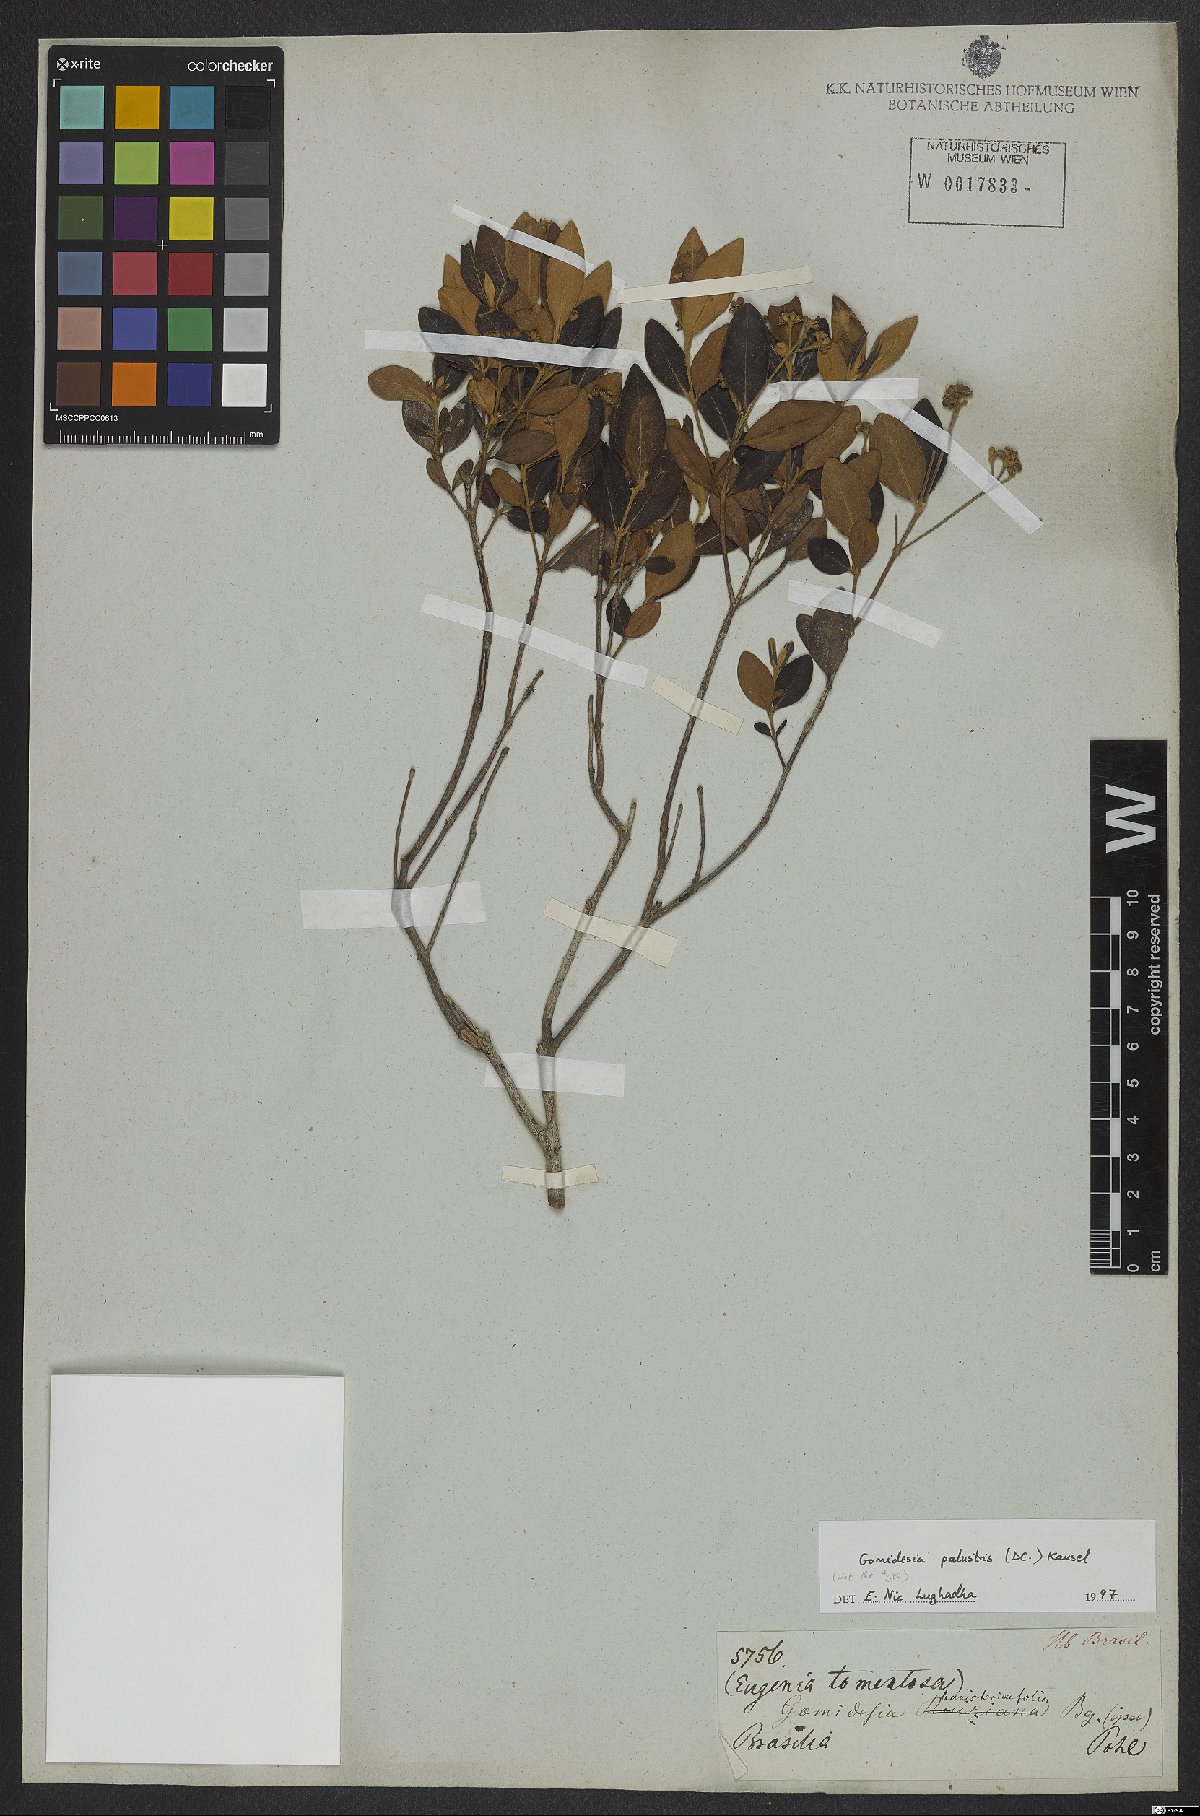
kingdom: Plantae
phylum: Tracheophyta
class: Magnoliopsida
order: Myrtales
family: Myrtaceae
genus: Myrcia
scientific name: Myrcia palustris
